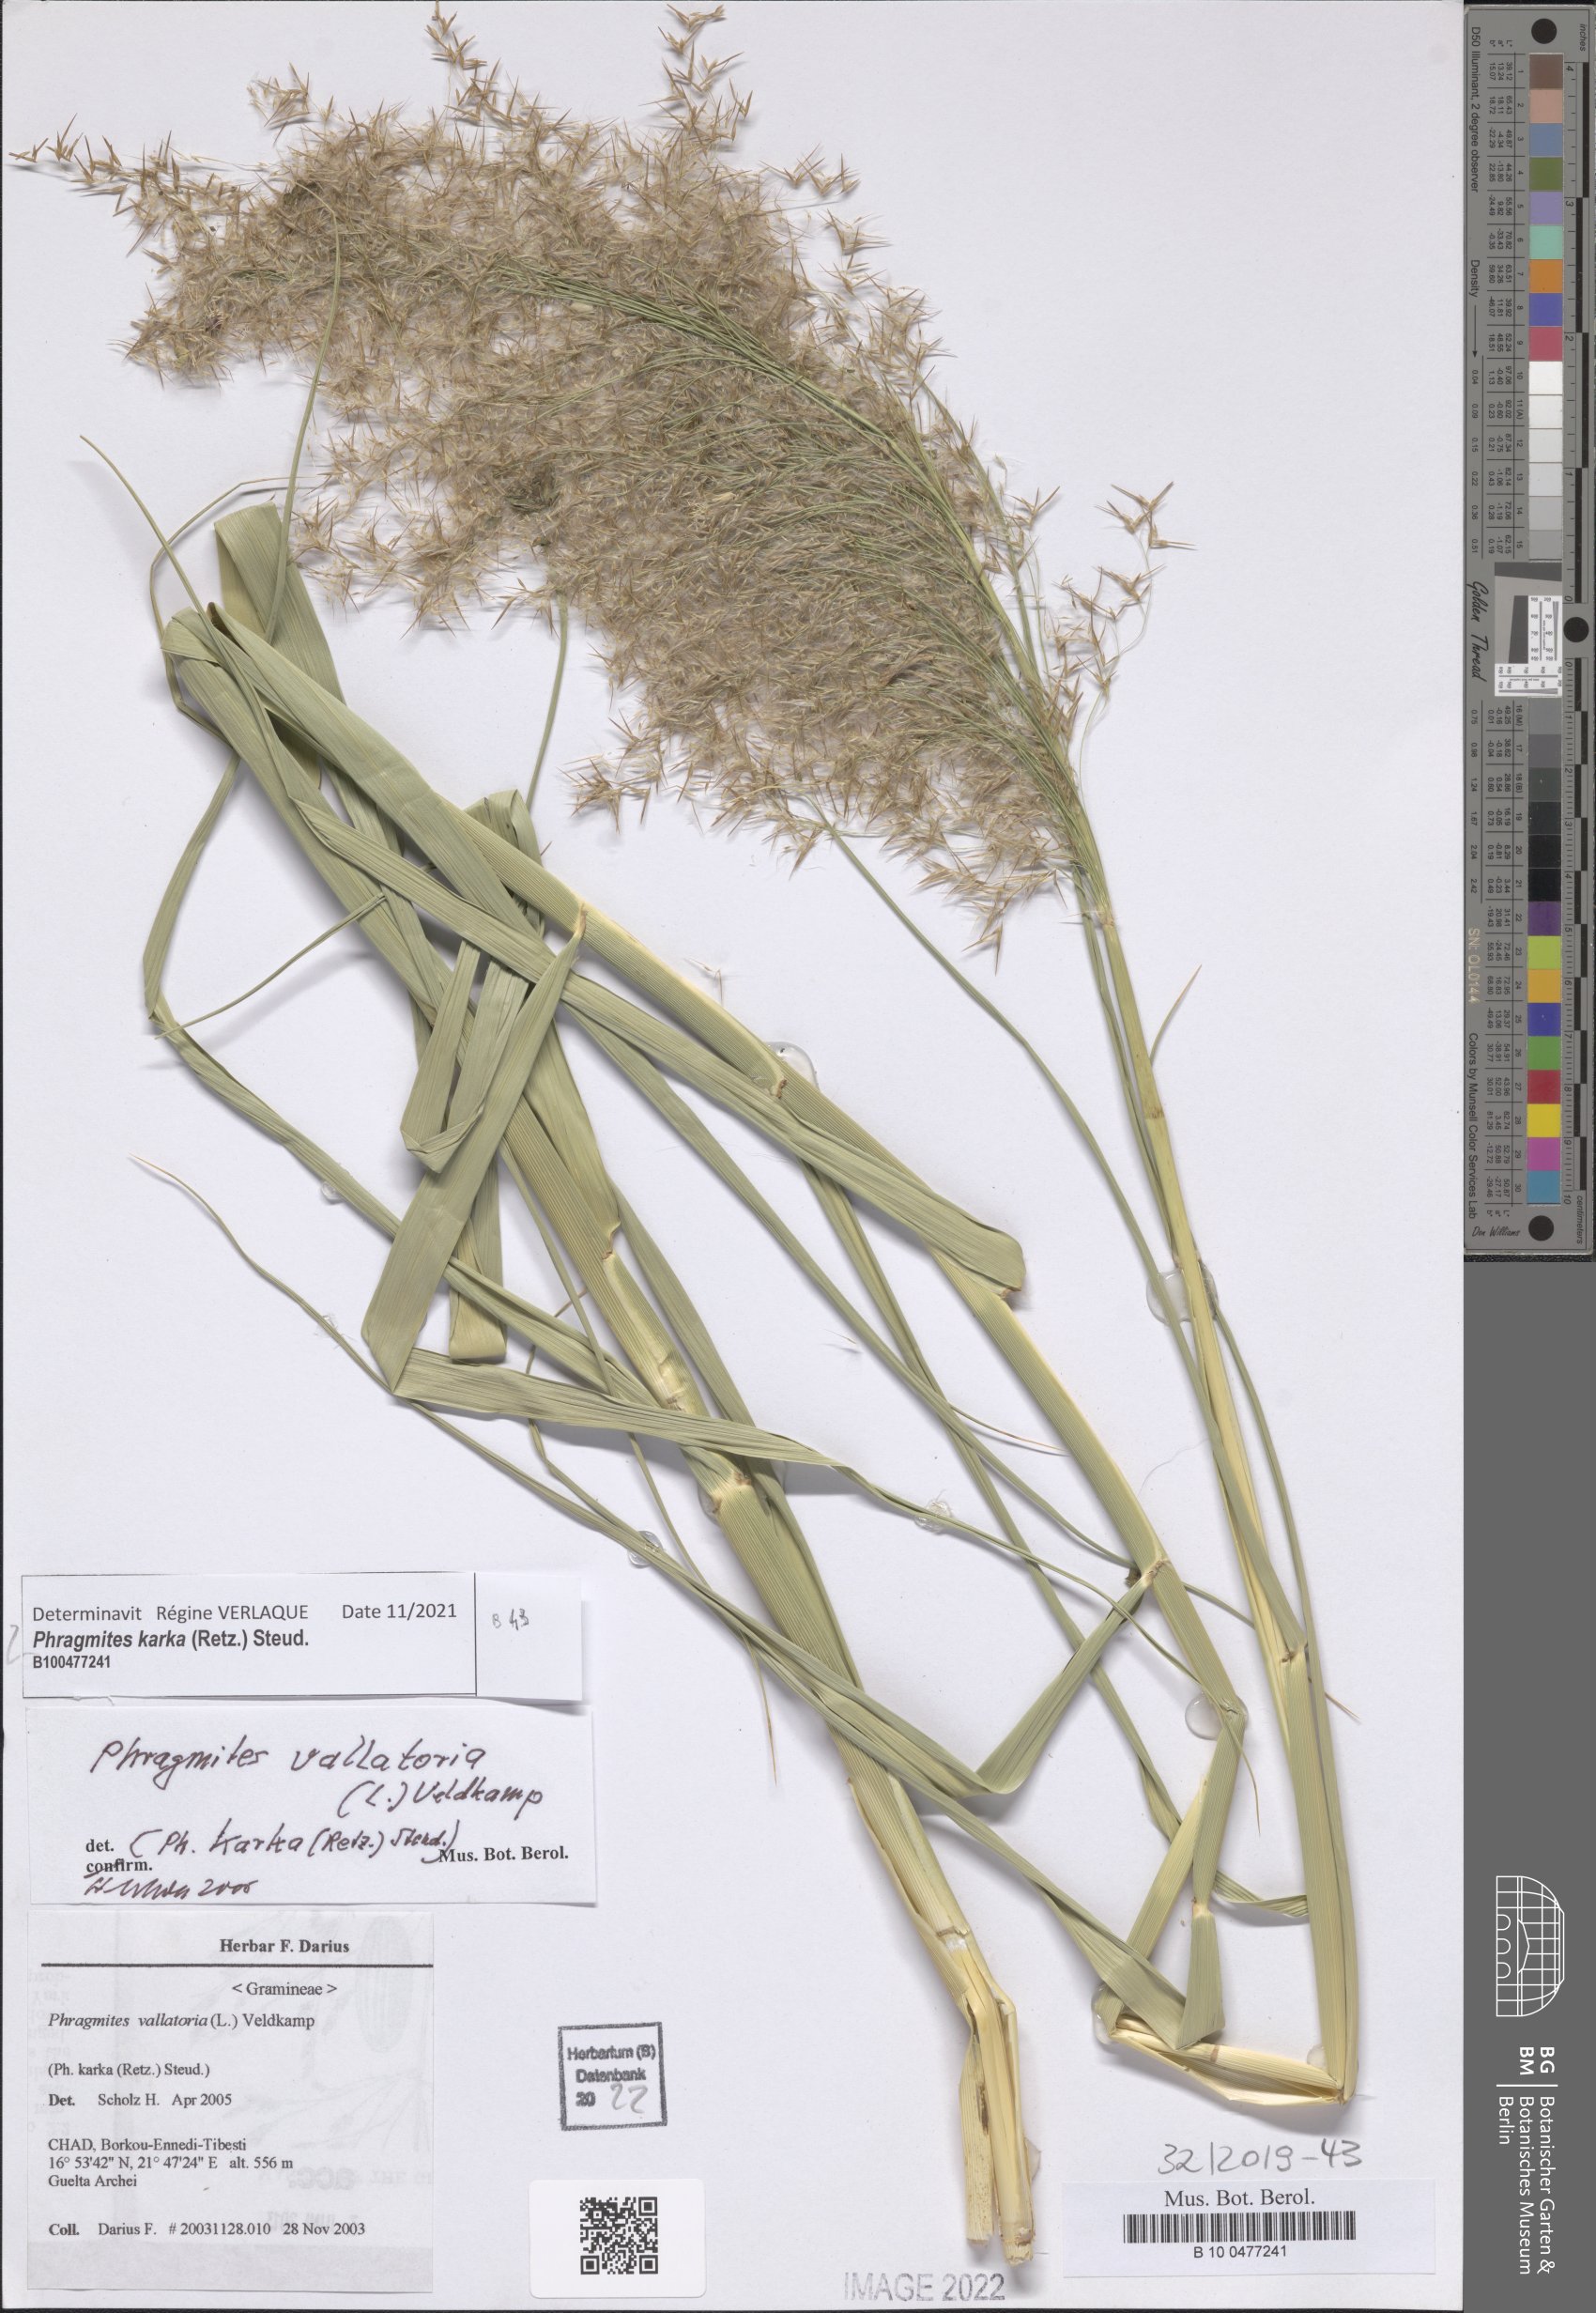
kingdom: Plantae
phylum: Tracheophyta
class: Liliopsida
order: Poales
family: Poaceae
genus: Phragmites
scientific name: Phragmites karka
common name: Tropical reed
